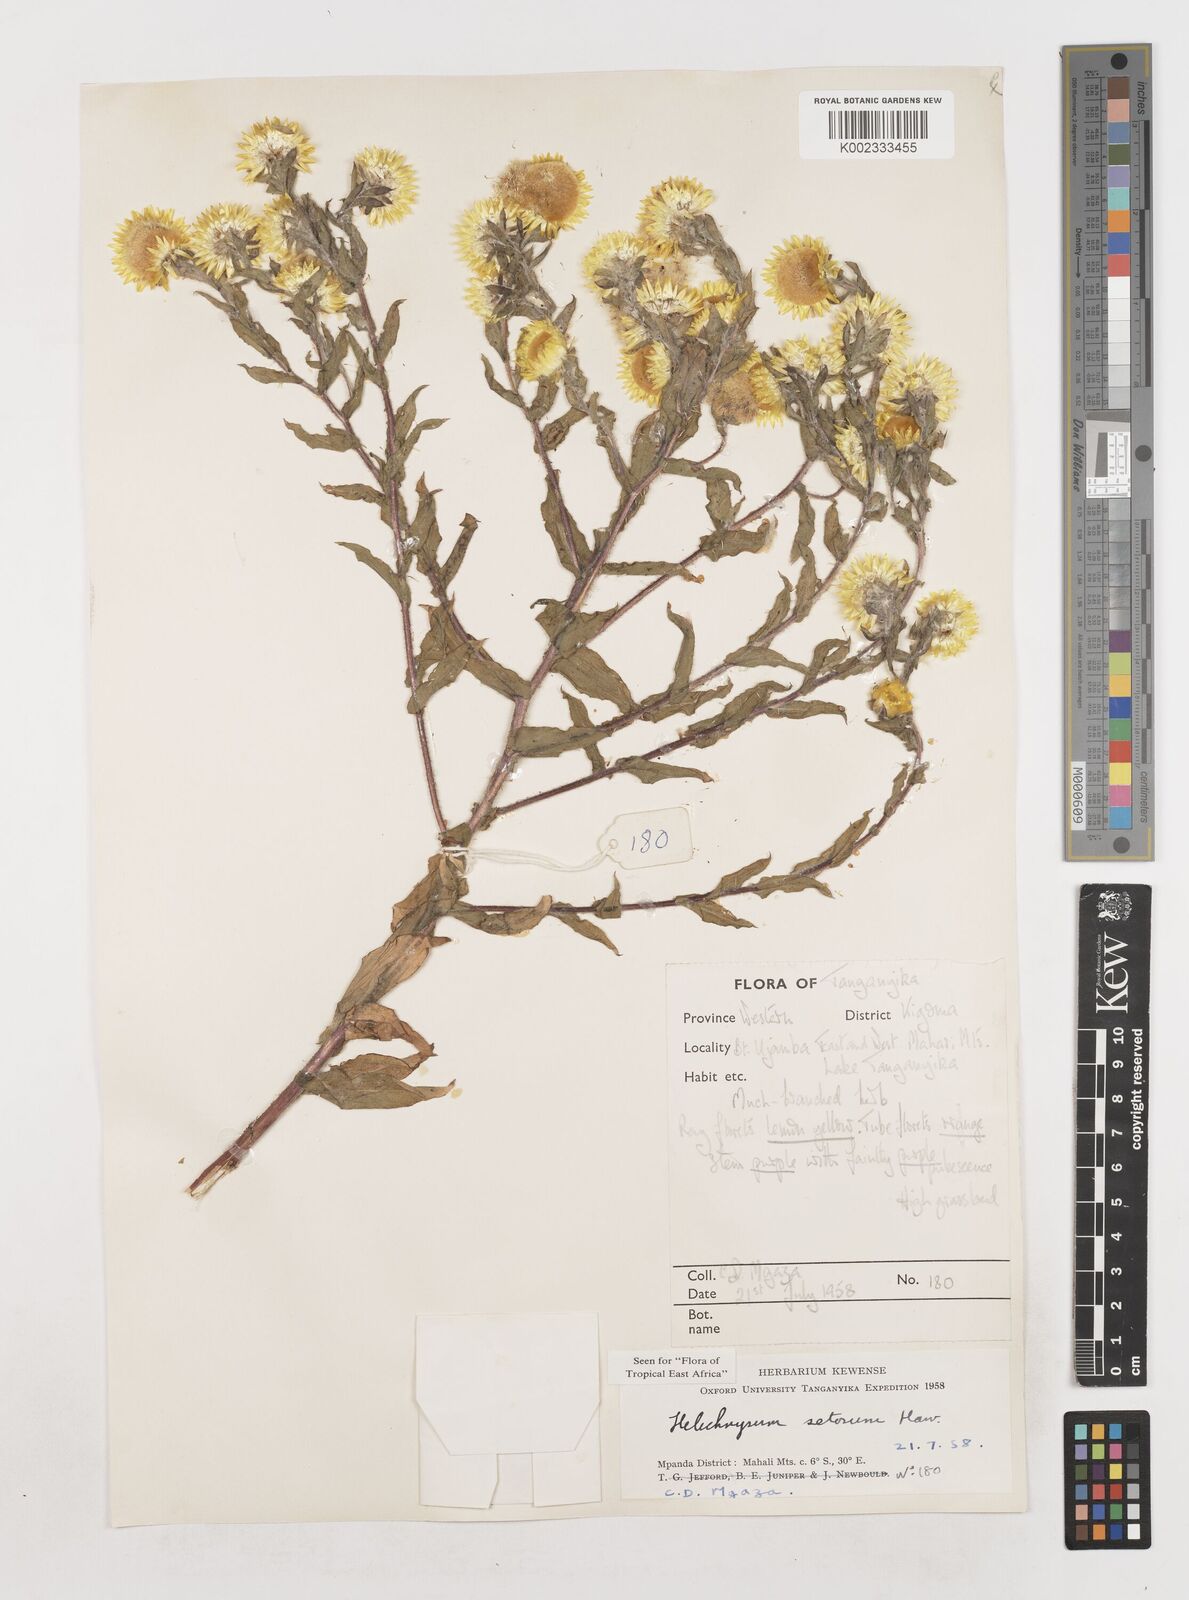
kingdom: Plantae
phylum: Tracheophyta
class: Magnoliopsida
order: Asterales
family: Asteraceae
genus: Helichrysum
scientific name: Helichrysum setosum
